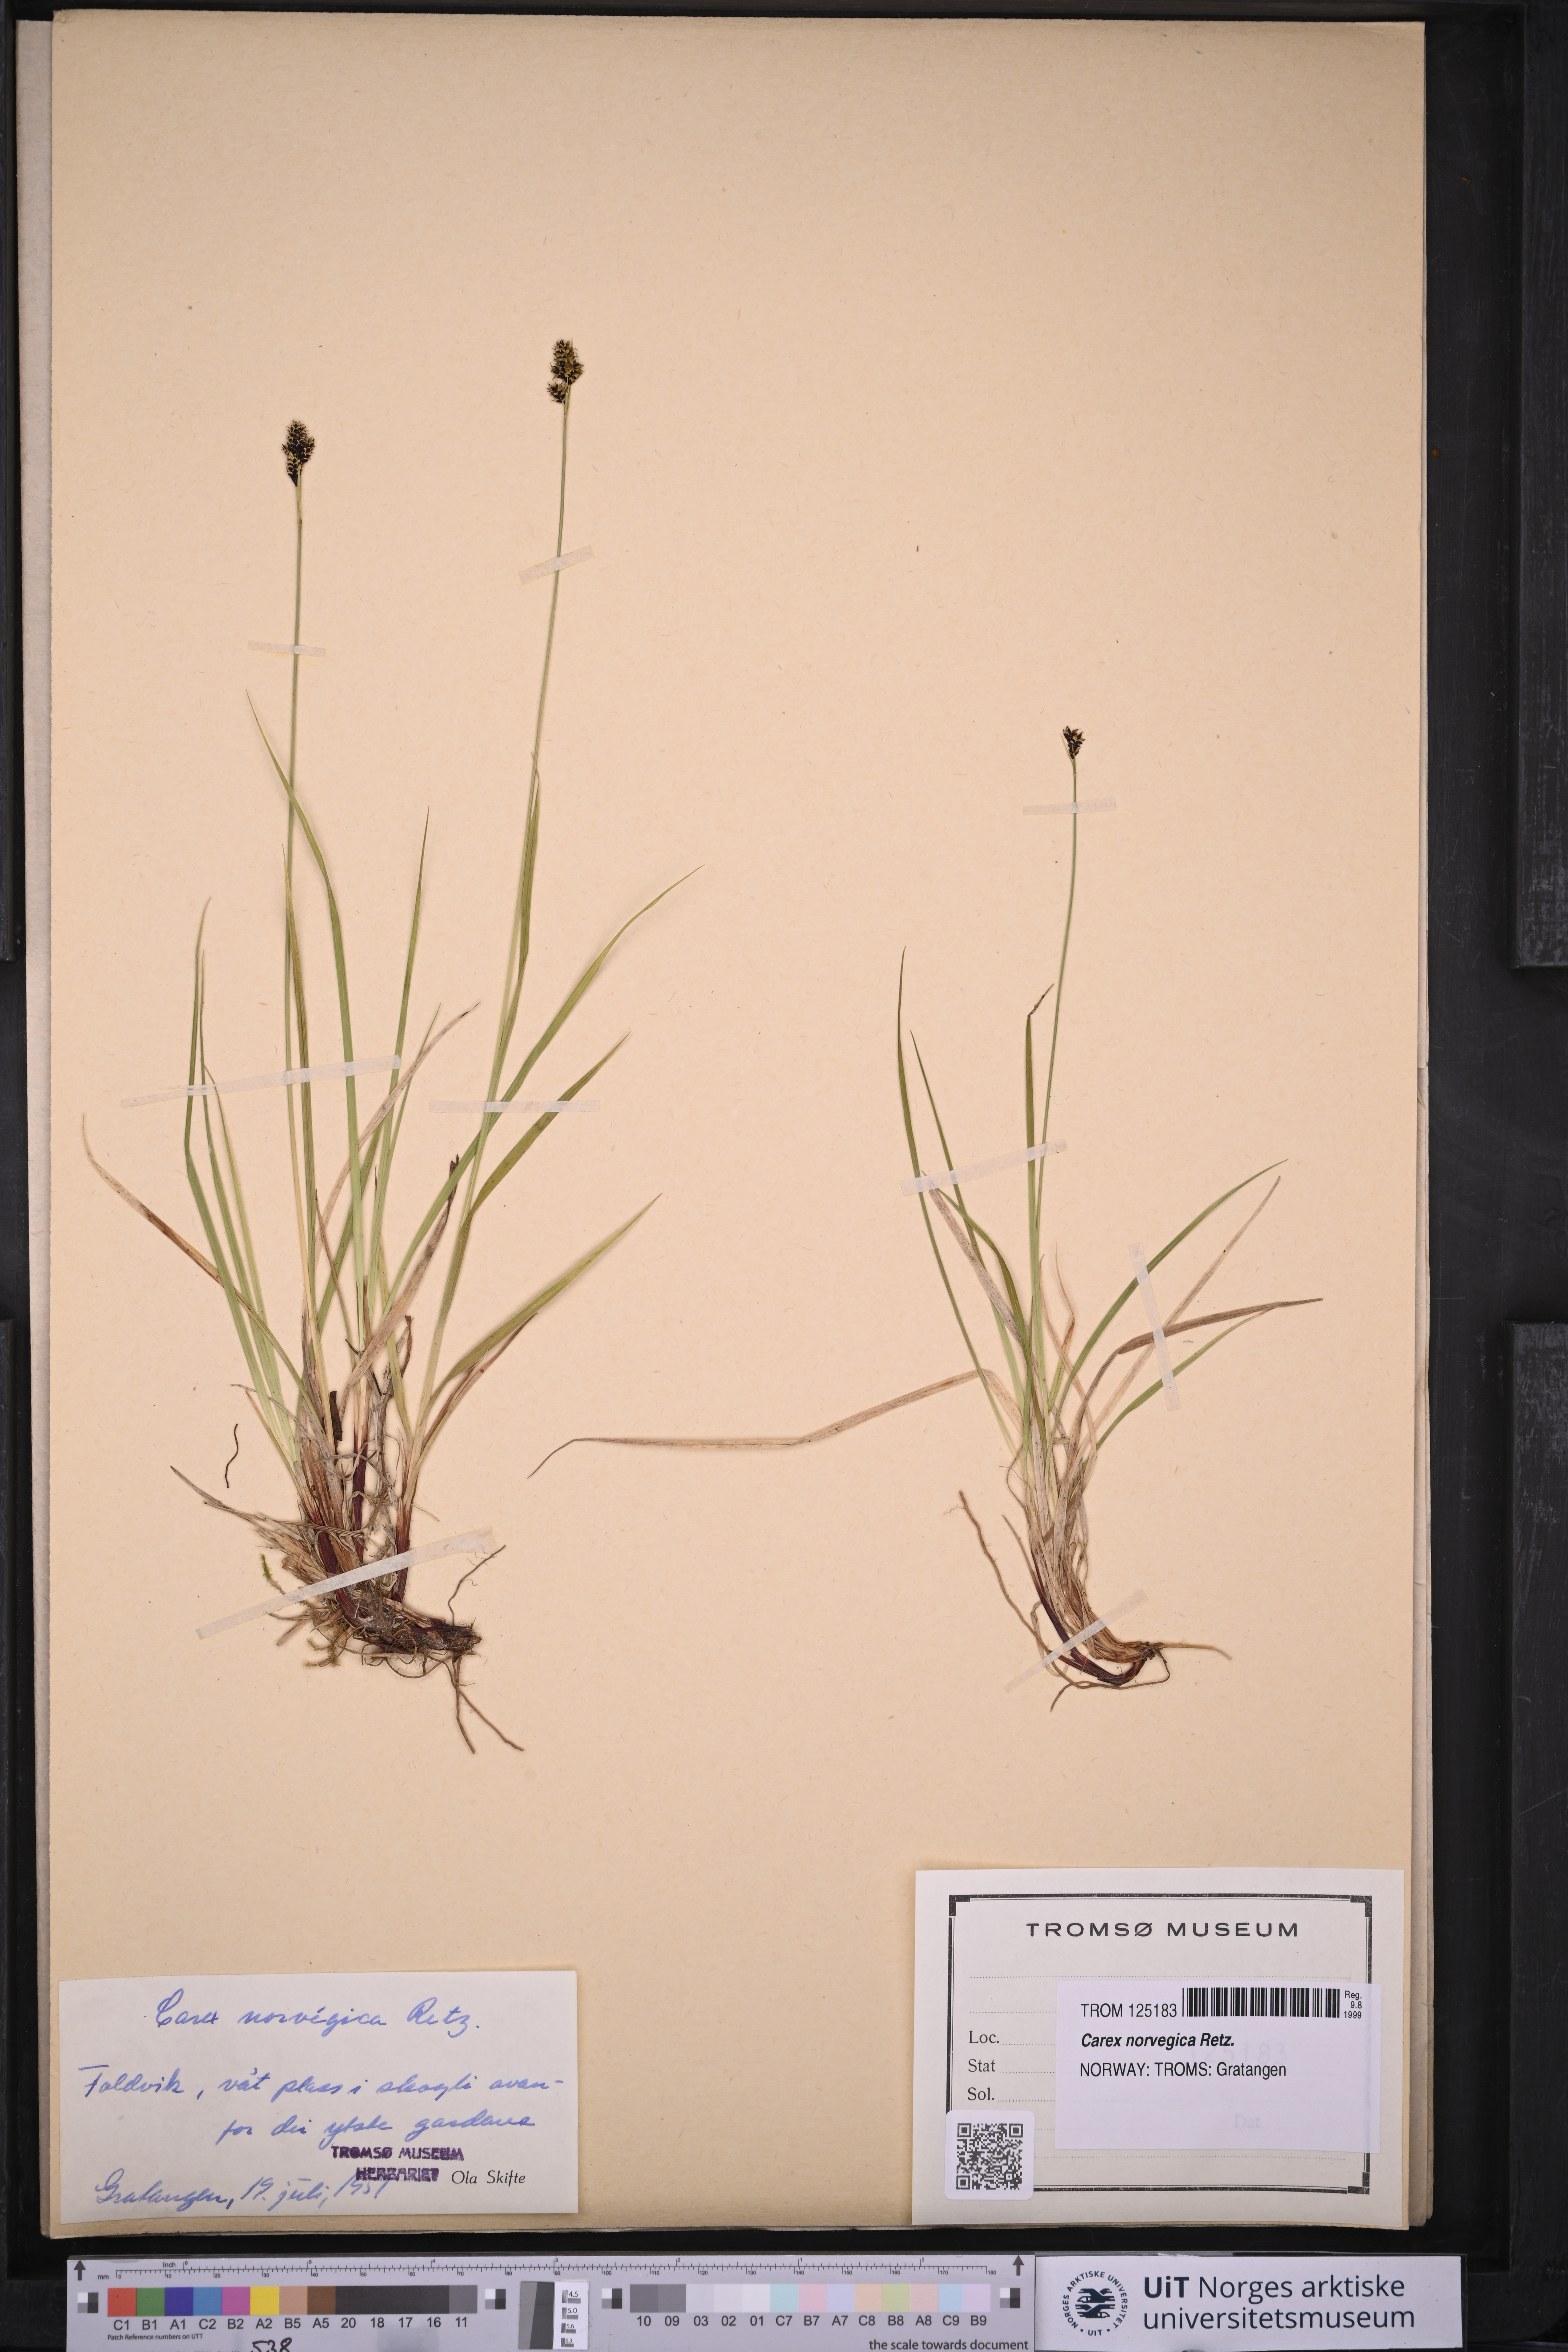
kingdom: Plantae
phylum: Tracheophyta
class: Liliopsida
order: Poales
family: Cyperaceae
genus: Carex
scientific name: Carex norvegica
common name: Close-headed alpine-sedge
